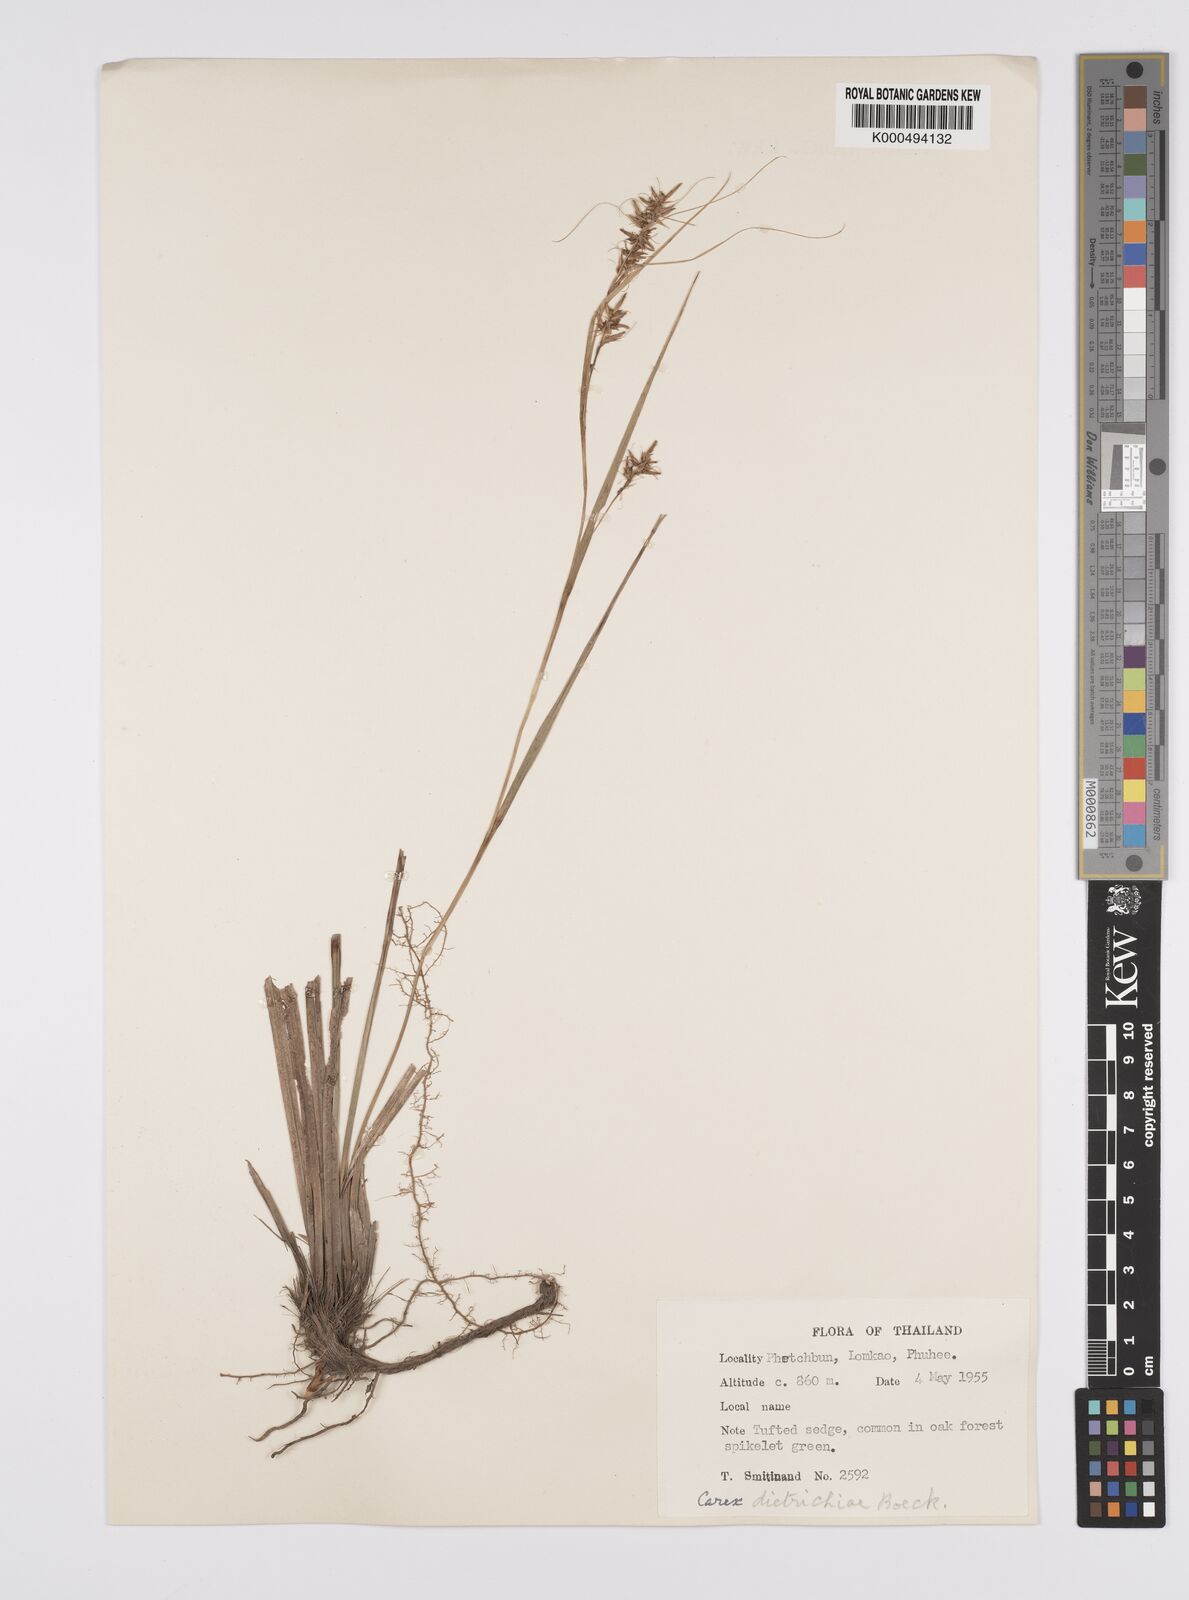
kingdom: Plantae
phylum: Tracheophyta
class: Liliopsida
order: Poales
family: Cyperaceae
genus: Carex
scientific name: Carex indica
